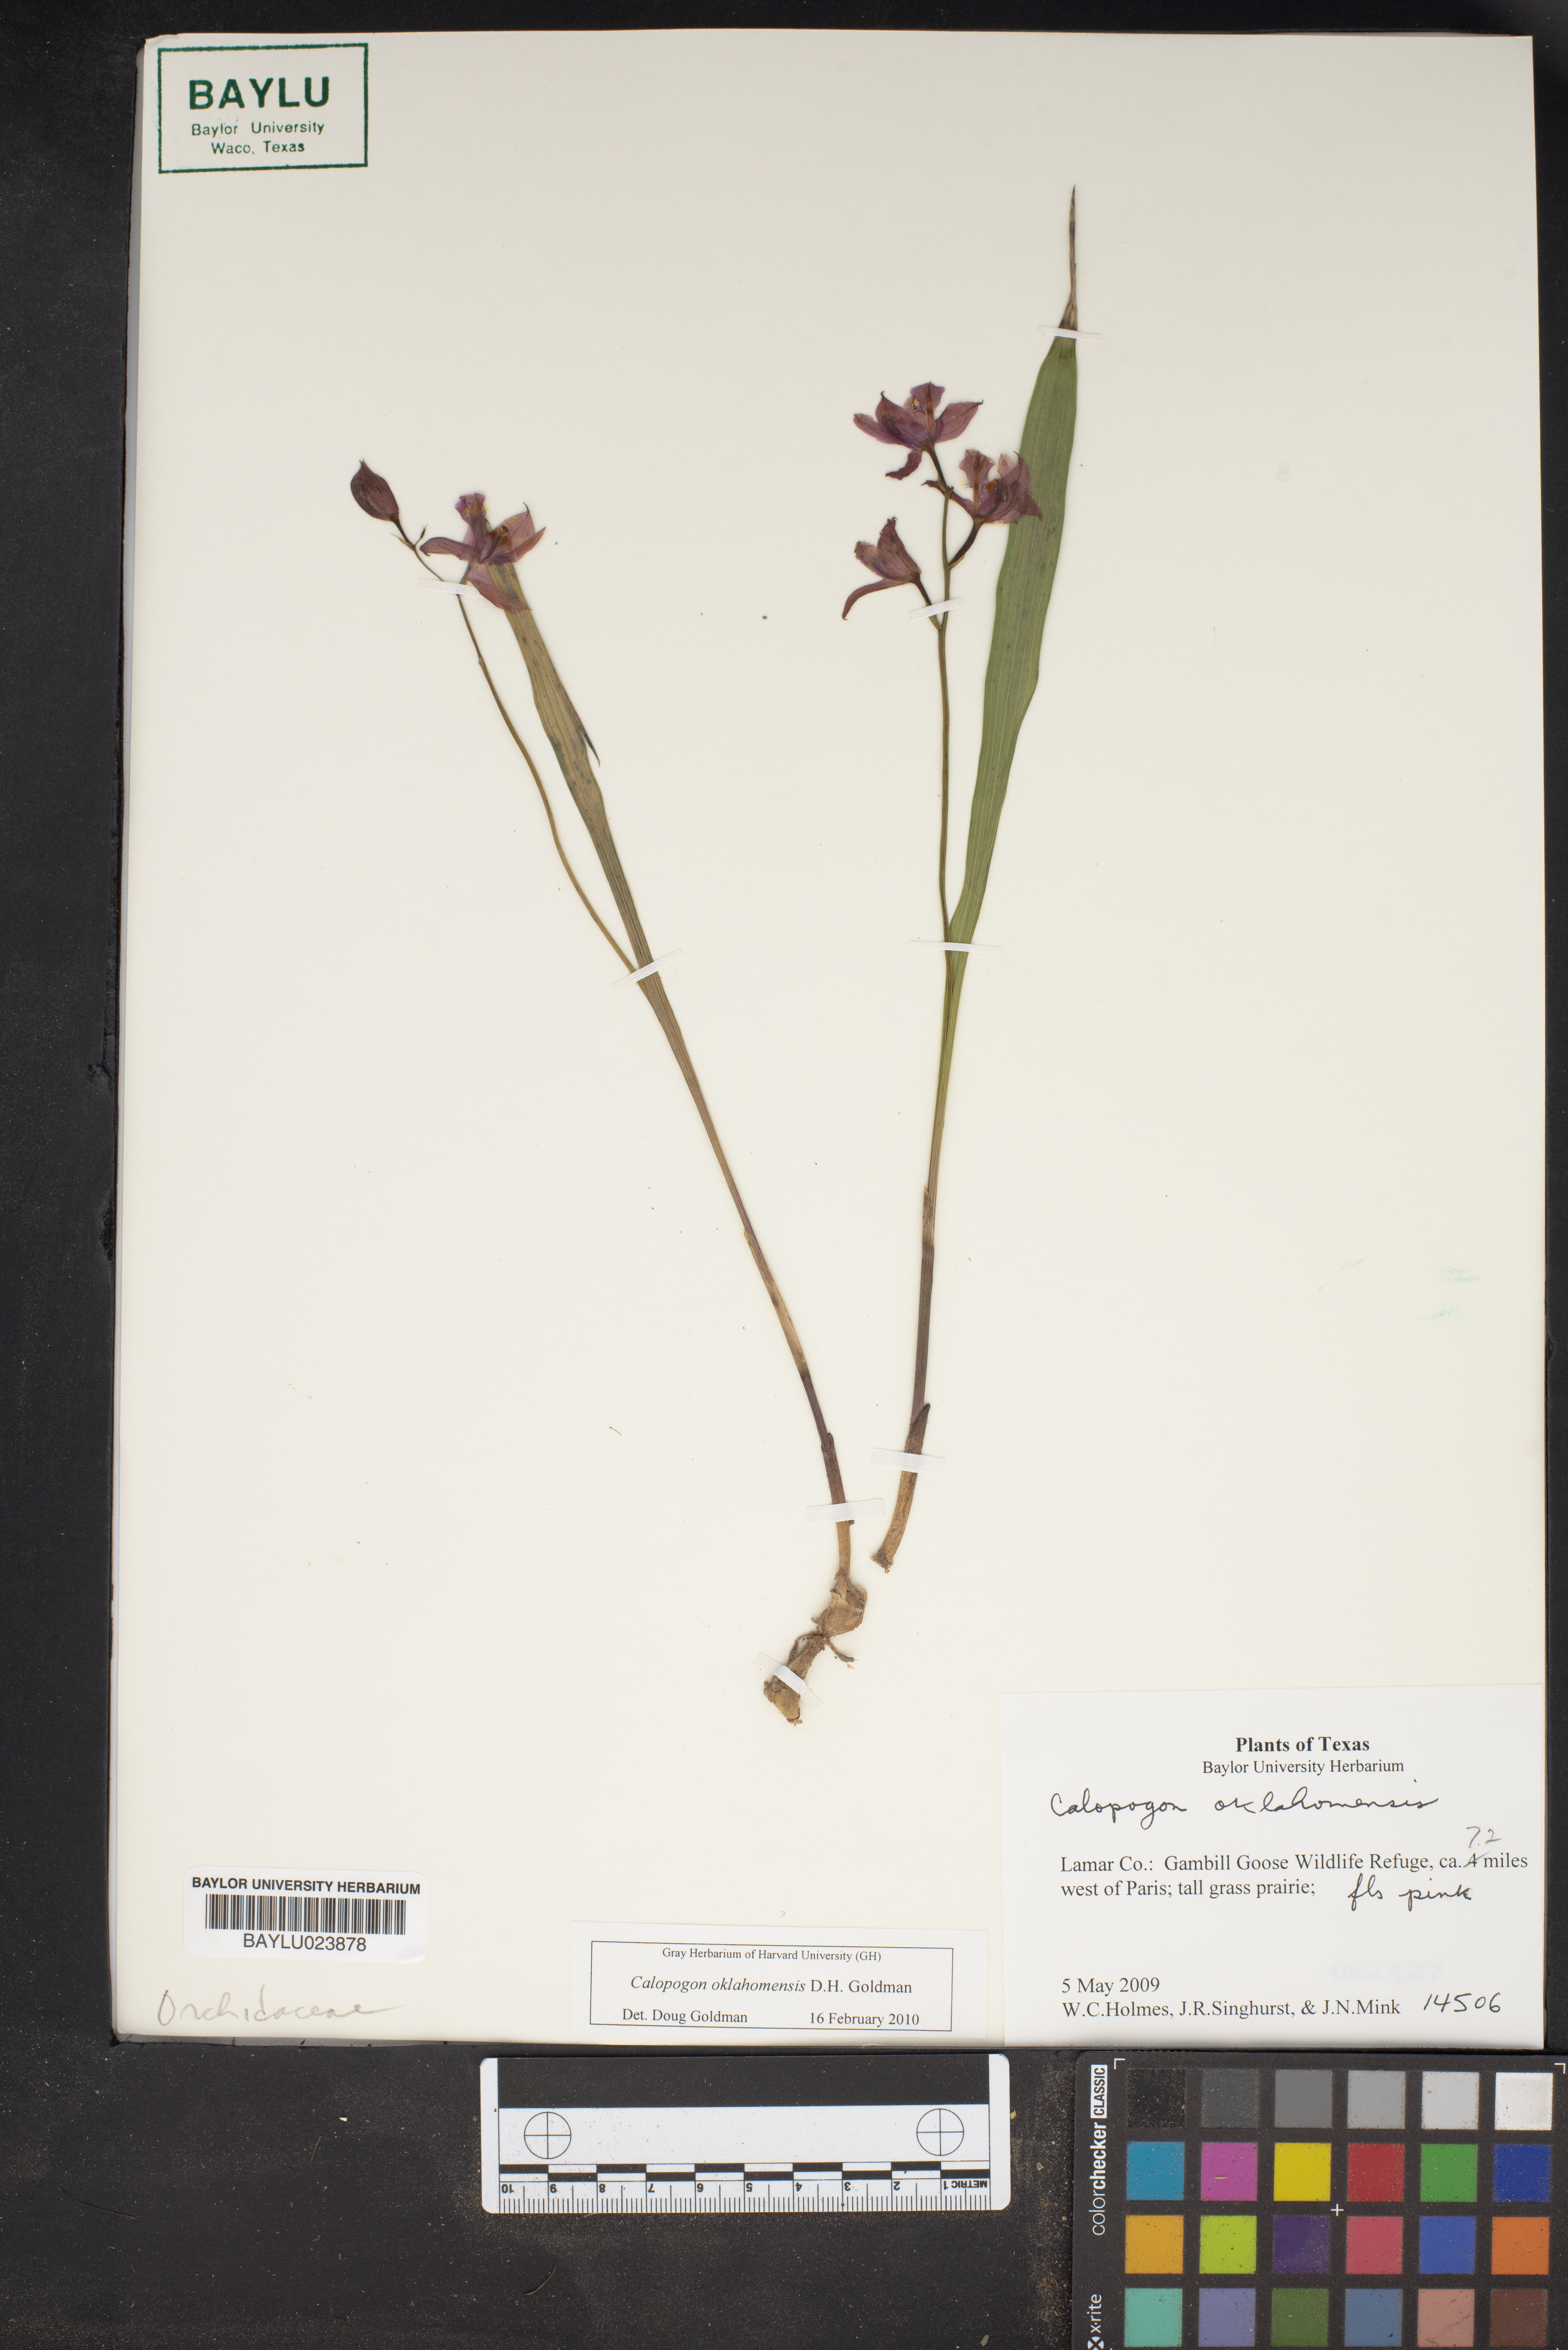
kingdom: Plantae
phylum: Tracheophyta
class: Liliopsida
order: Asparagales
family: Orchidaceae
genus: Calopogon
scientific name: Calopogon oklahomensis
